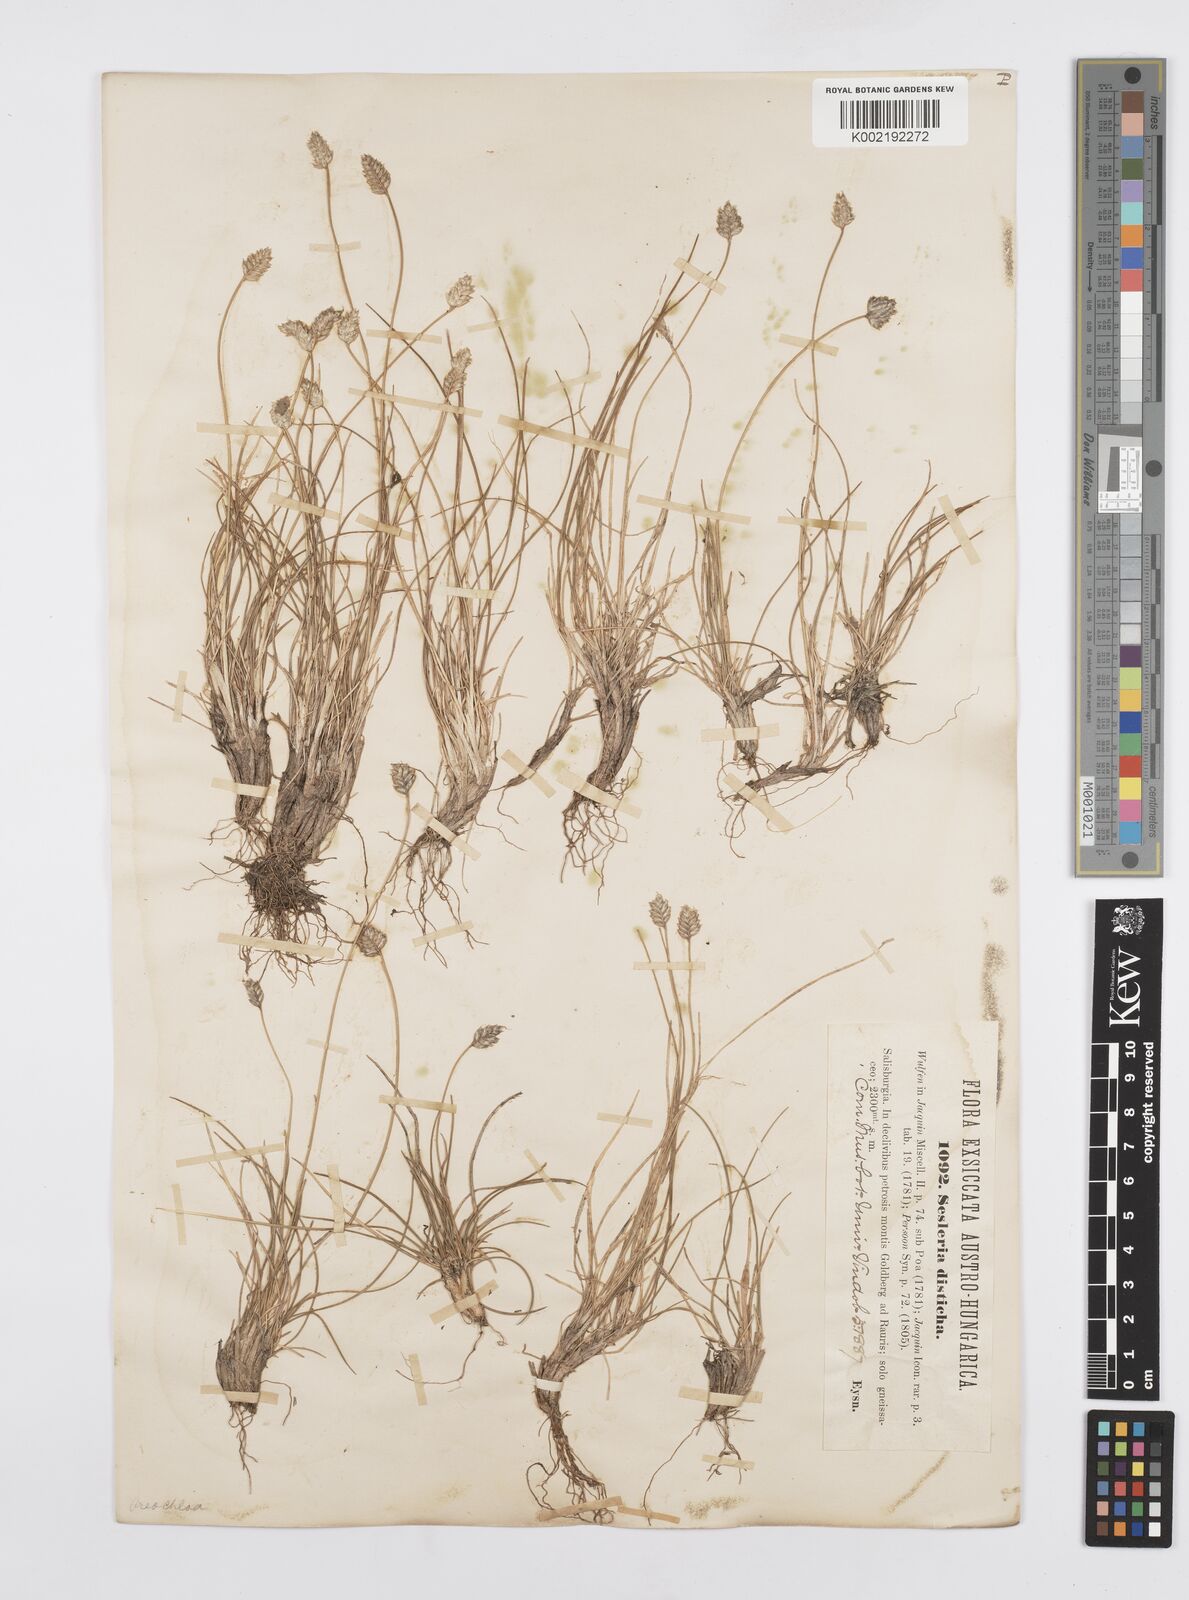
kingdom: Plantae
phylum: Tracheophyta
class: Liliopsida
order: Poales
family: Poaceae
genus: Oreochloa
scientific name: Oreochloa disticha
